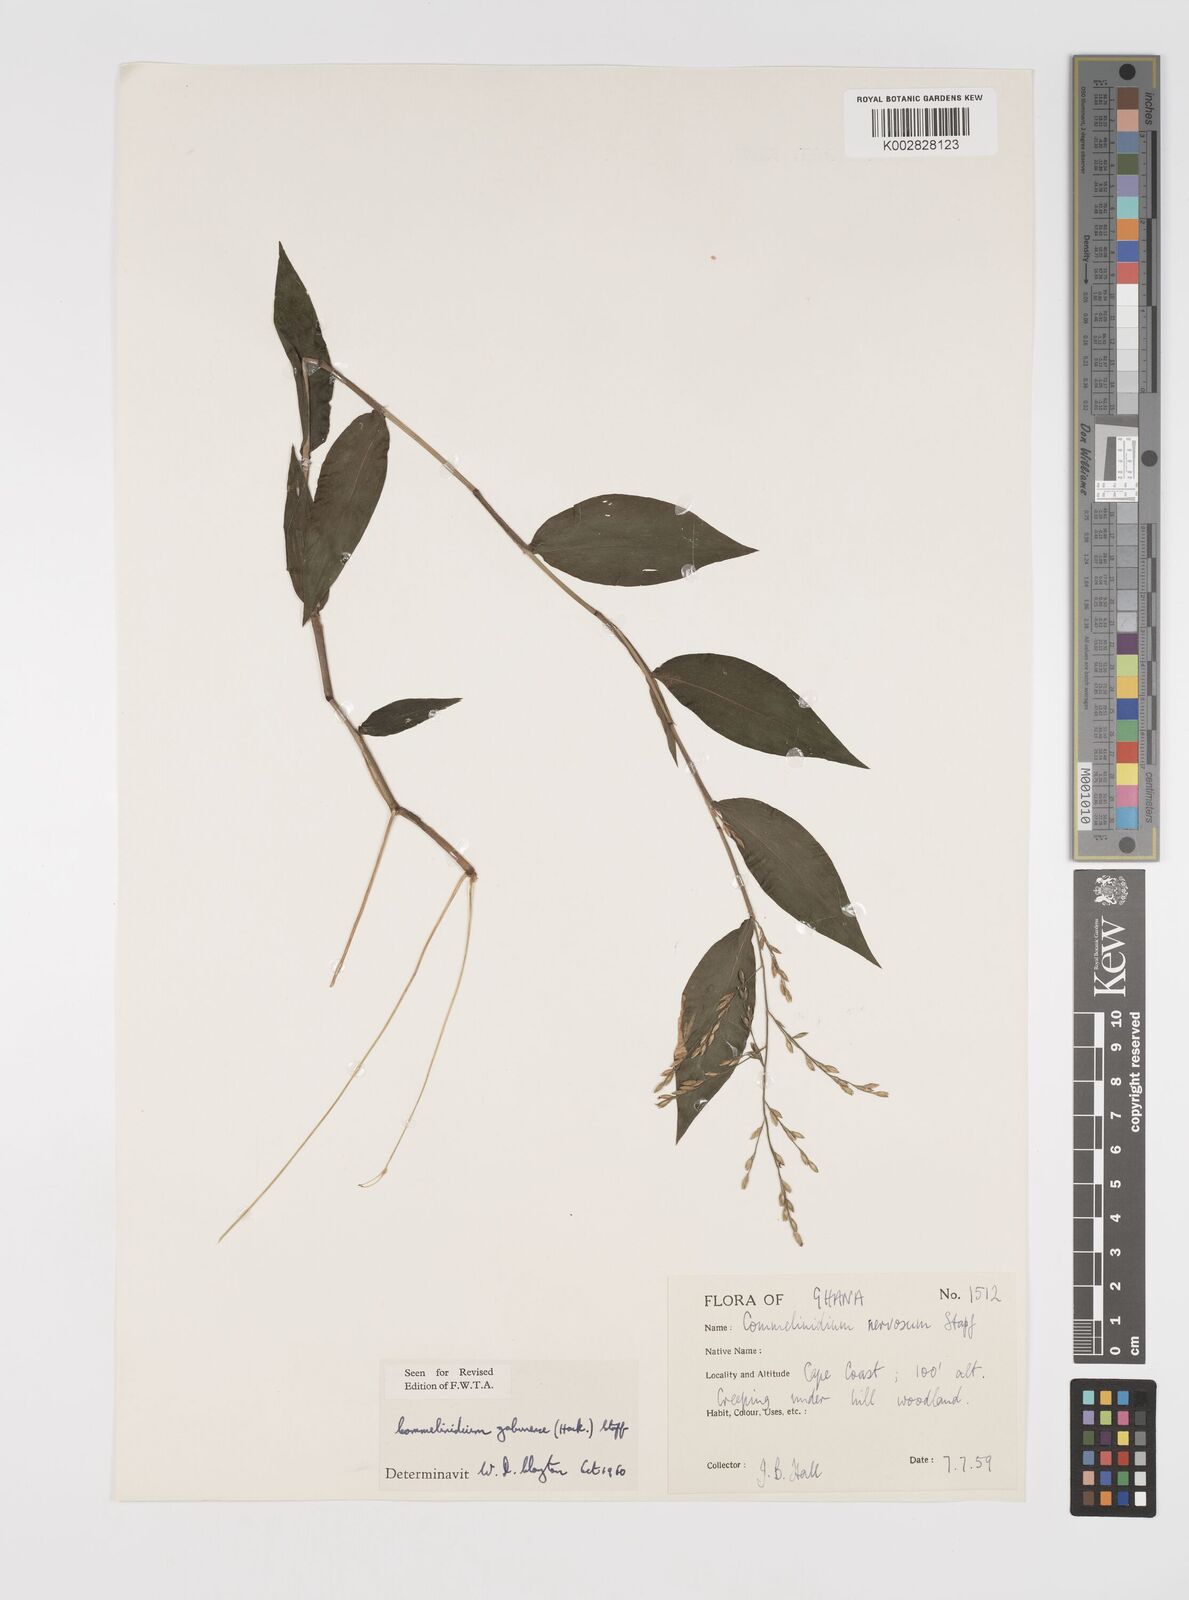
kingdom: Plantae
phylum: Tracheophyta
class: Liliopsida
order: Poales
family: Poaceae
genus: Acroceras
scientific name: Acroceras gabunense
